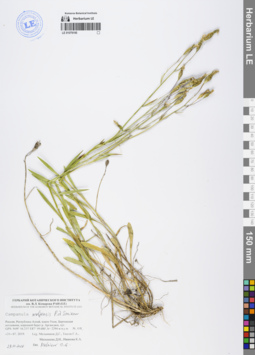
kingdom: Plantae
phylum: Tracheophyta
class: Magnoliopsida
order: Asterales
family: Campanulaceae
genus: Campanula
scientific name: Campanula stevenii
